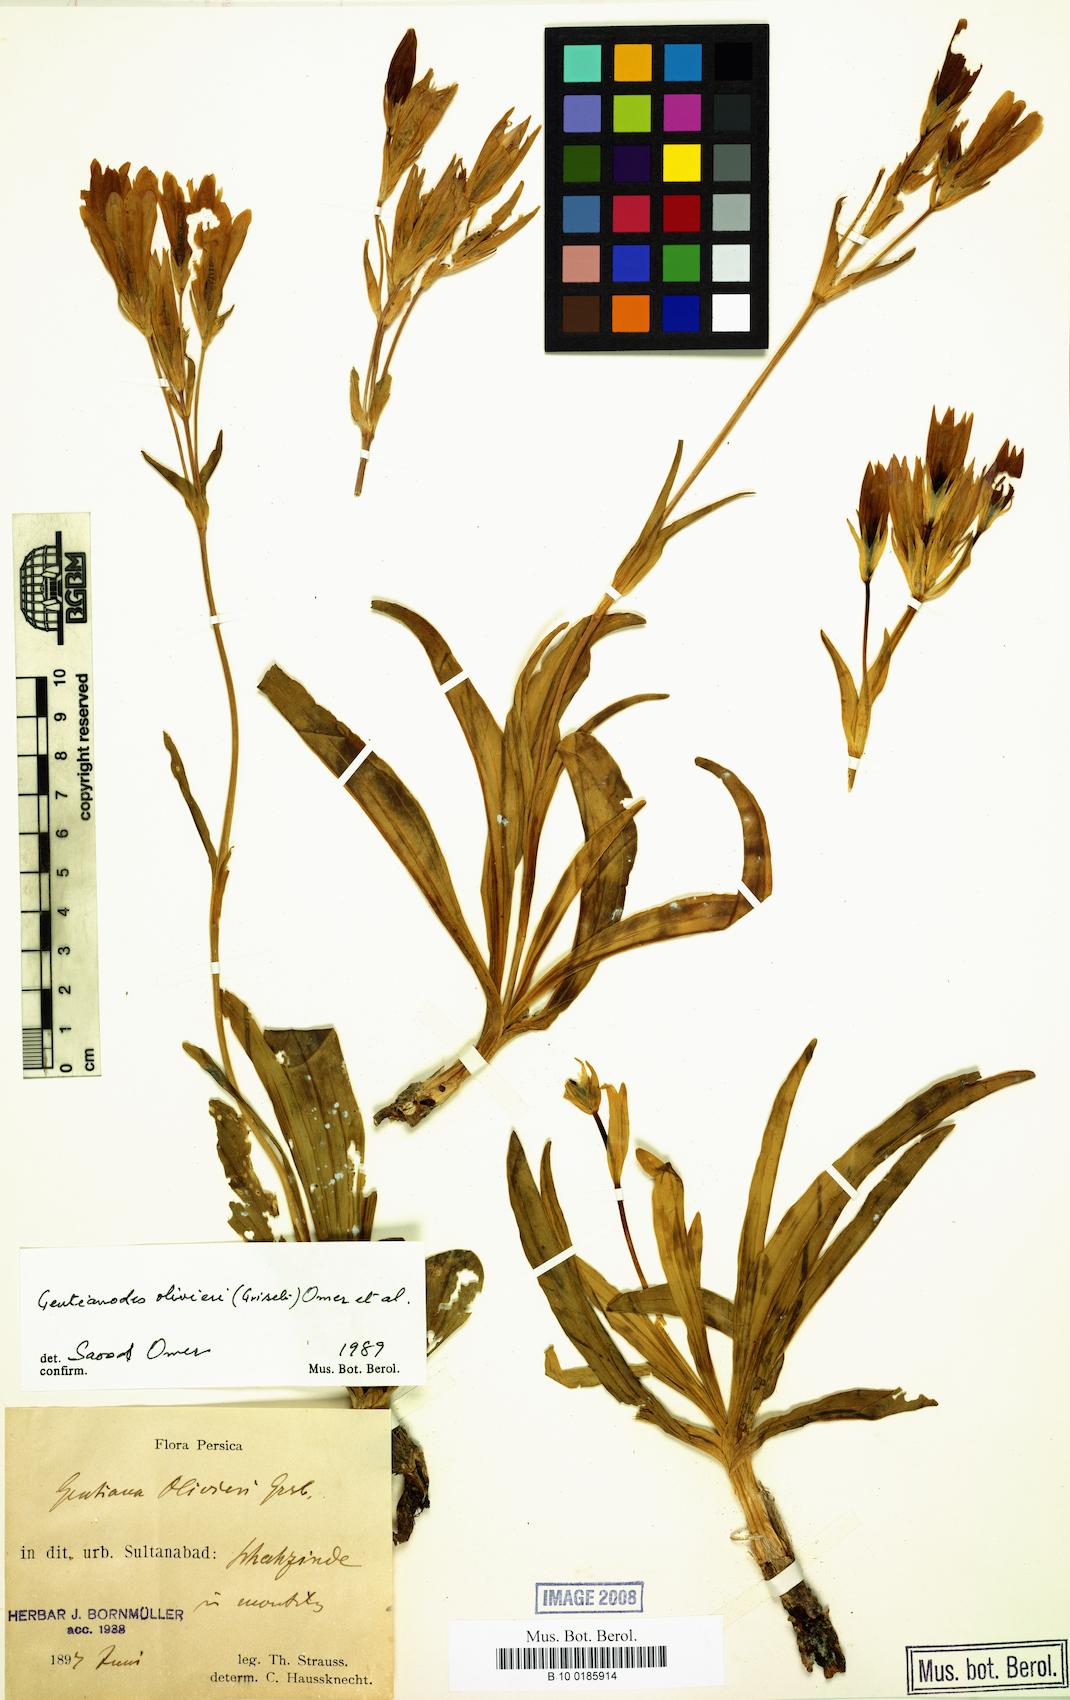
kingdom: Plantae
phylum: Tracheophyta
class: Magnoliopsida
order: Gentianales
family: Gentianaceae
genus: Gentiana
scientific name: Gentiana olivieri
